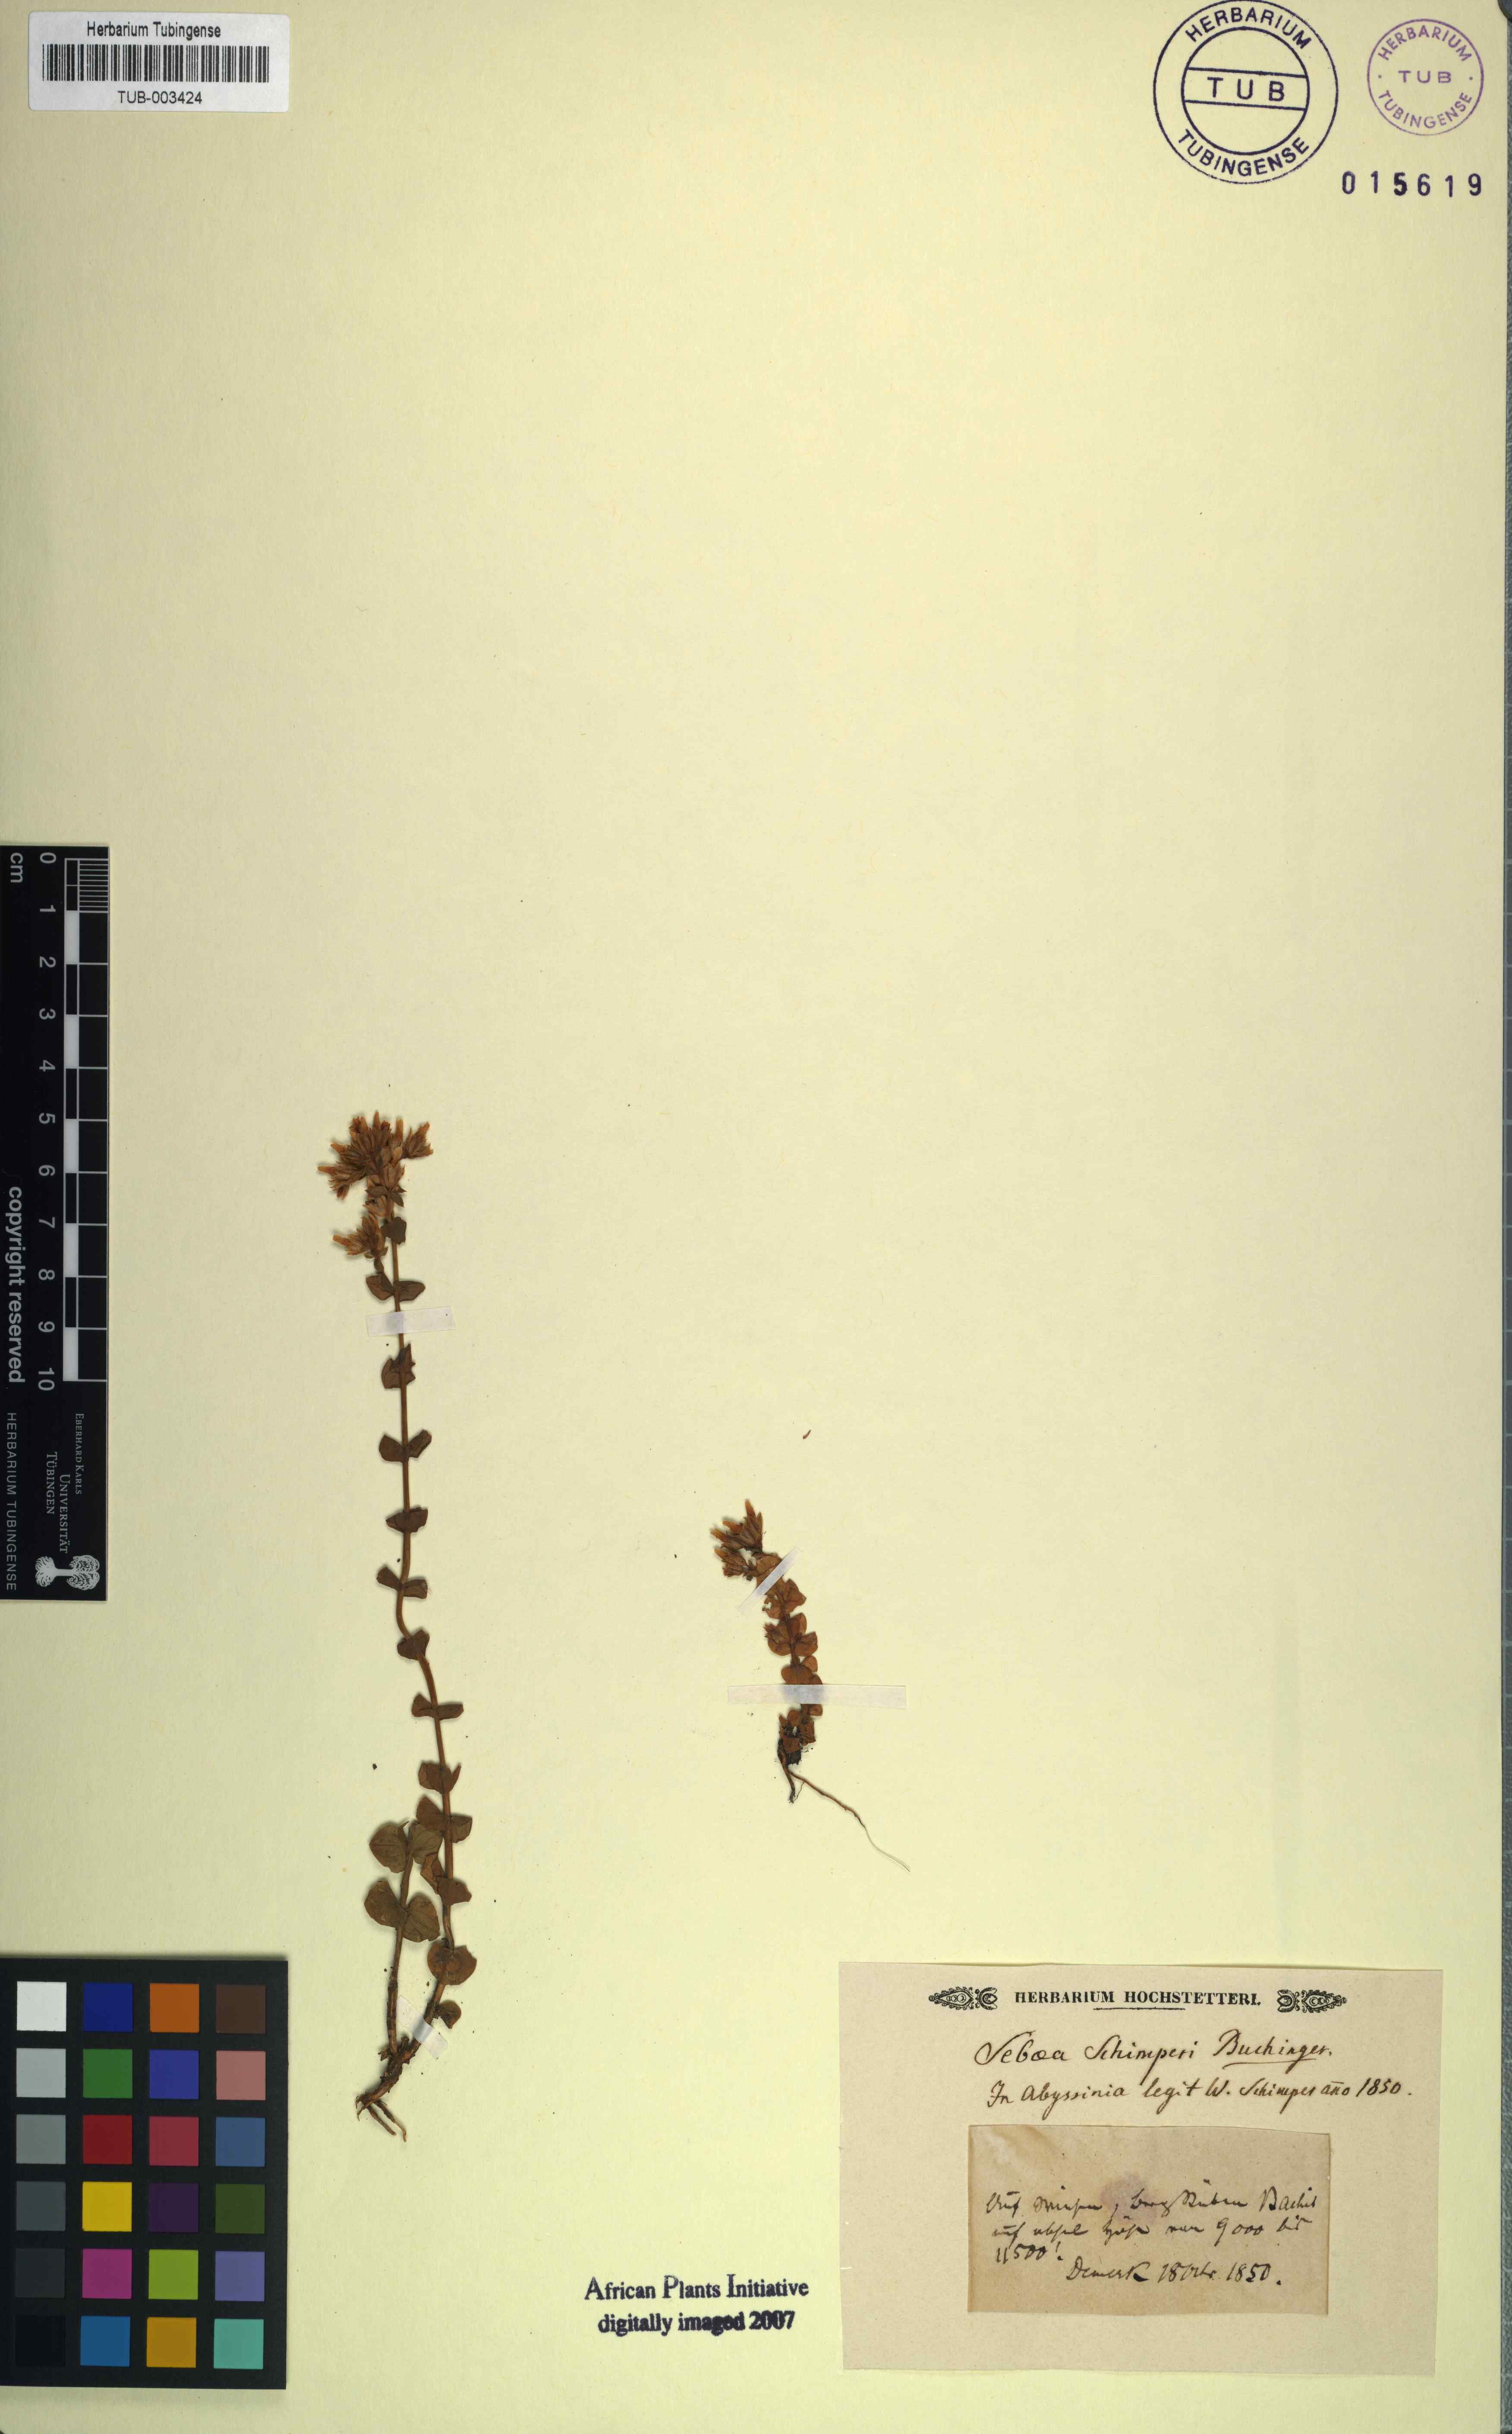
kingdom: Plantae
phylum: Tracheophyta
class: Magnoliopsida
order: Gentianales
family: Gentianaceae
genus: Sebaea
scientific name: Sebaea
